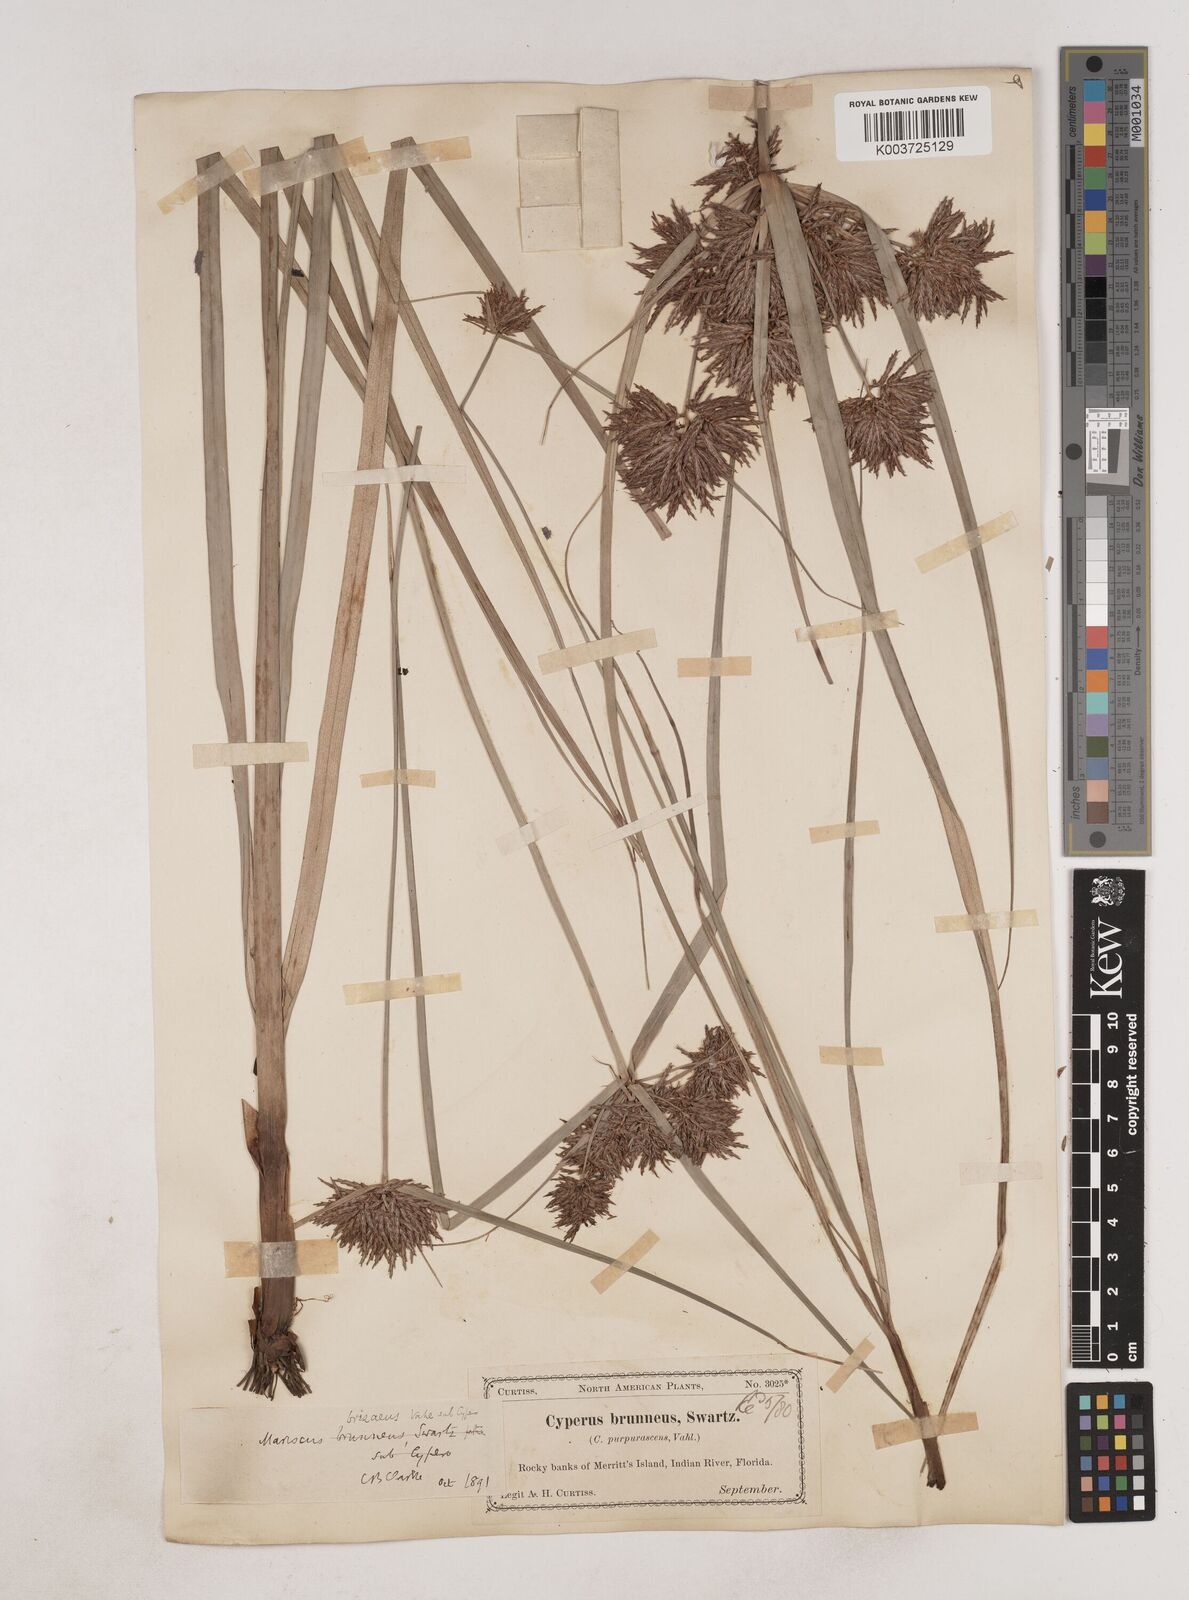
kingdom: Plantae
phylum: Tracheophyta
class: Liliopsida
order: Poales
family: Cyperaceae
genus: Cyperus
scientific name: Cyperus brunneus
